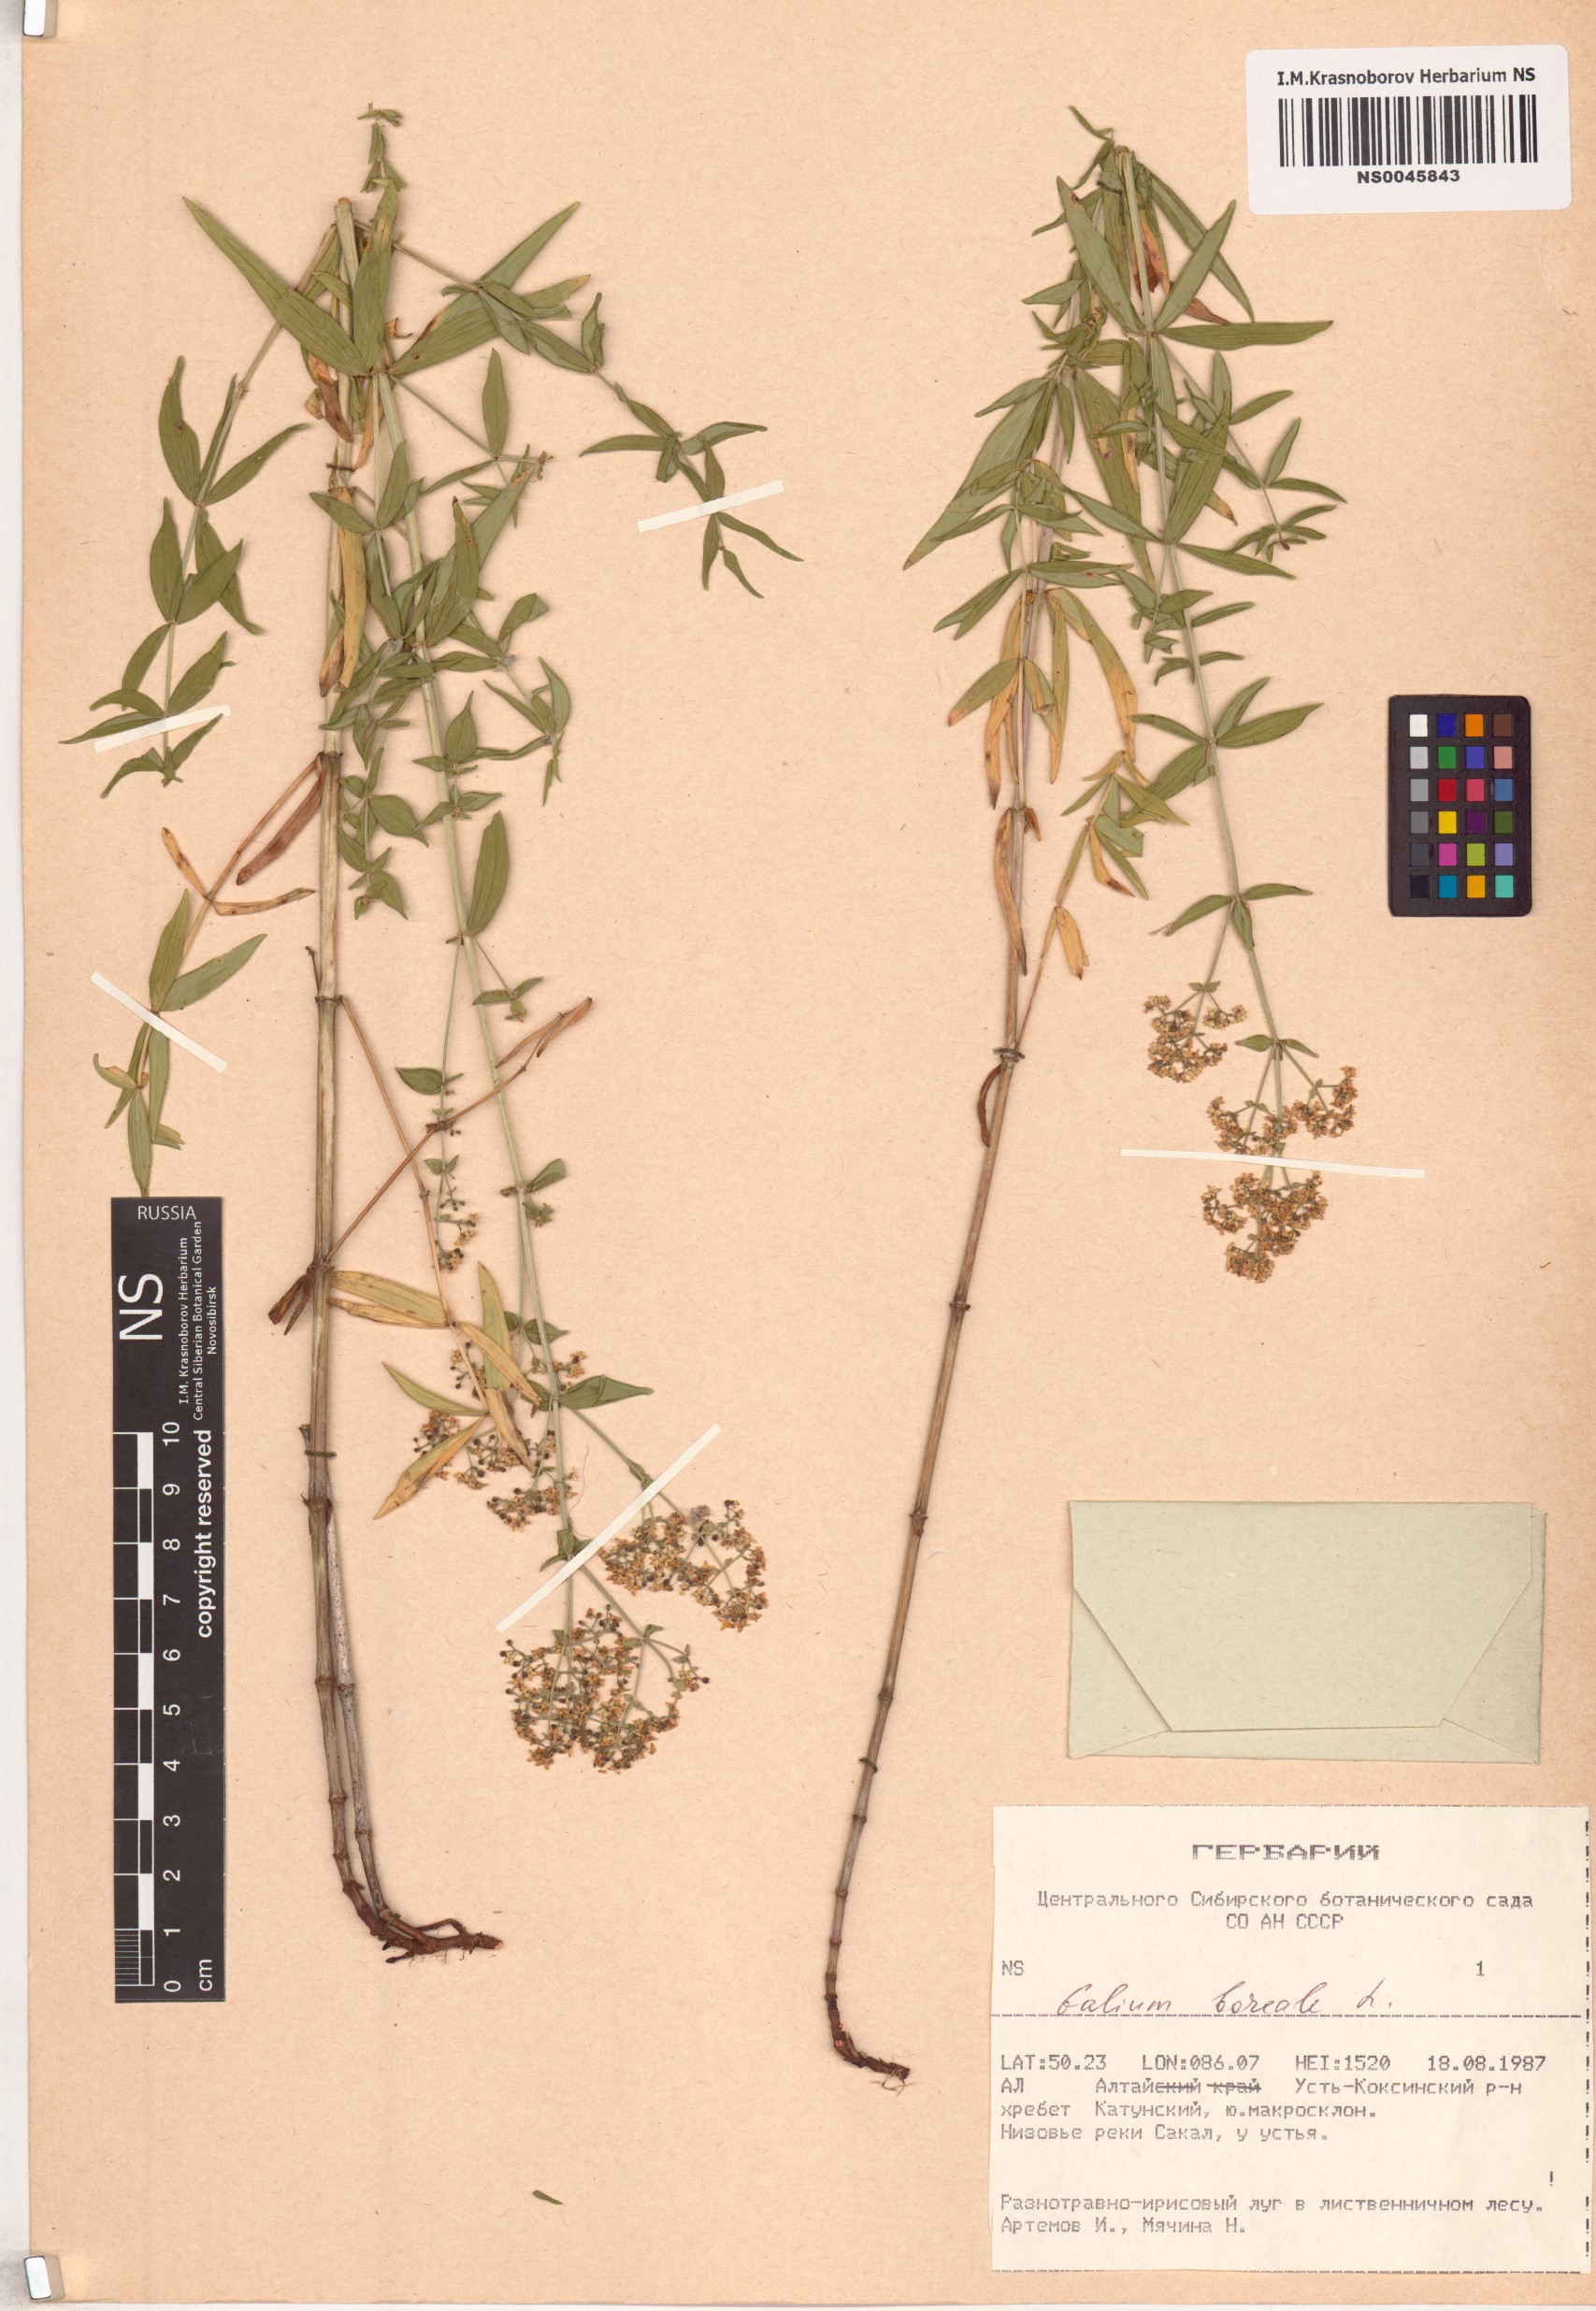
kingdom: Plantae
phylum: Tracheophyta
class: Magnoliopsida
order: Gentianales
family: Rubiaceae
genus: Galium
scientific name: Galium boreale
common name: Northern bedstraw
